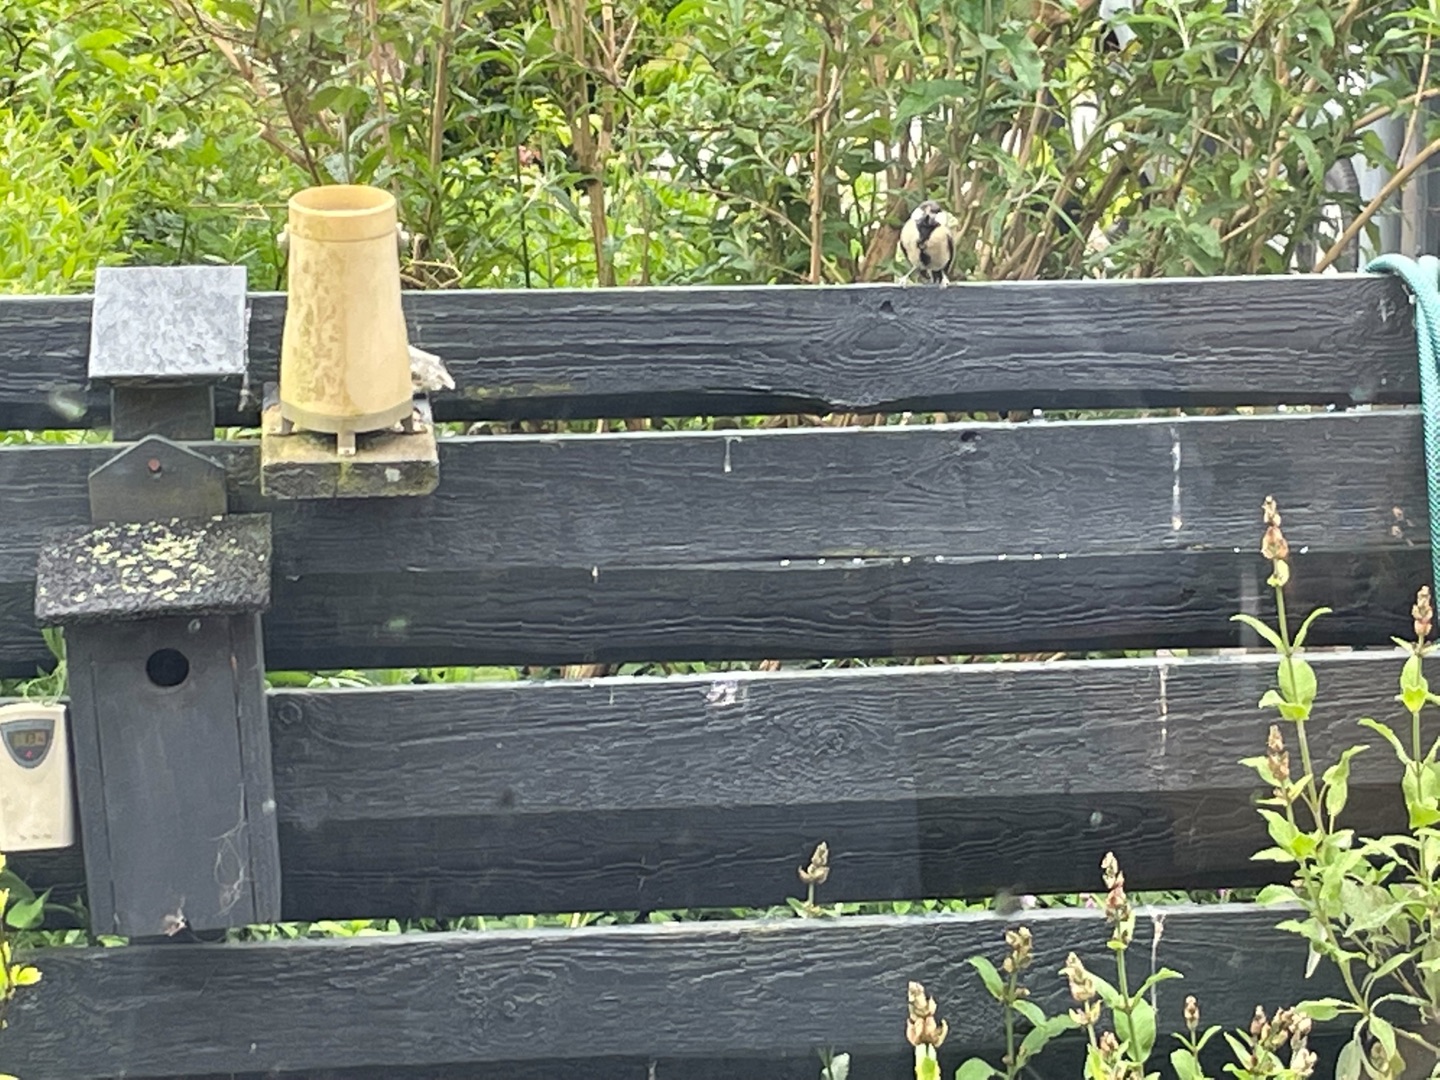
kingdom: Animalia
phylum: Chordata
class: Aves
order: Passeriformes
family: Paridae
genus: Parus
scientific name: Parus major
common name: Musvit
